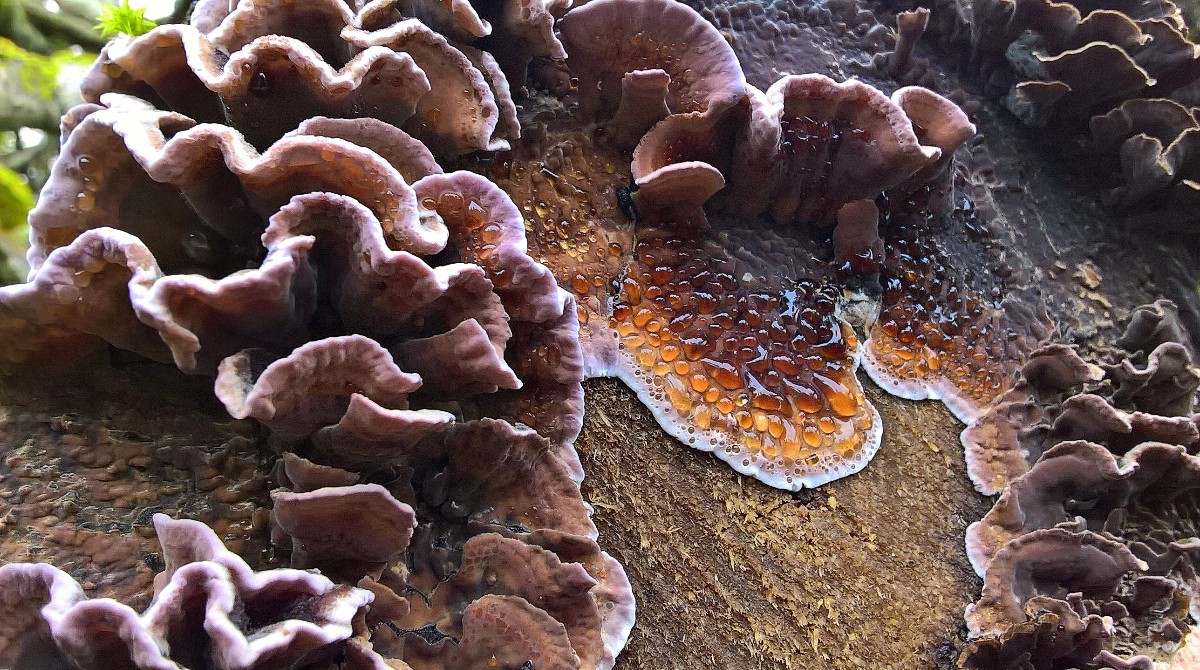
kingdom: Fungi
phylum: Basidiomycota
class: Agaricomycetes
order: Agaricales
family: Cyphellaceae
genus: Chondrostereum
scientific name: Chondrostereum purpureum
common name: purpurlædersvamp
